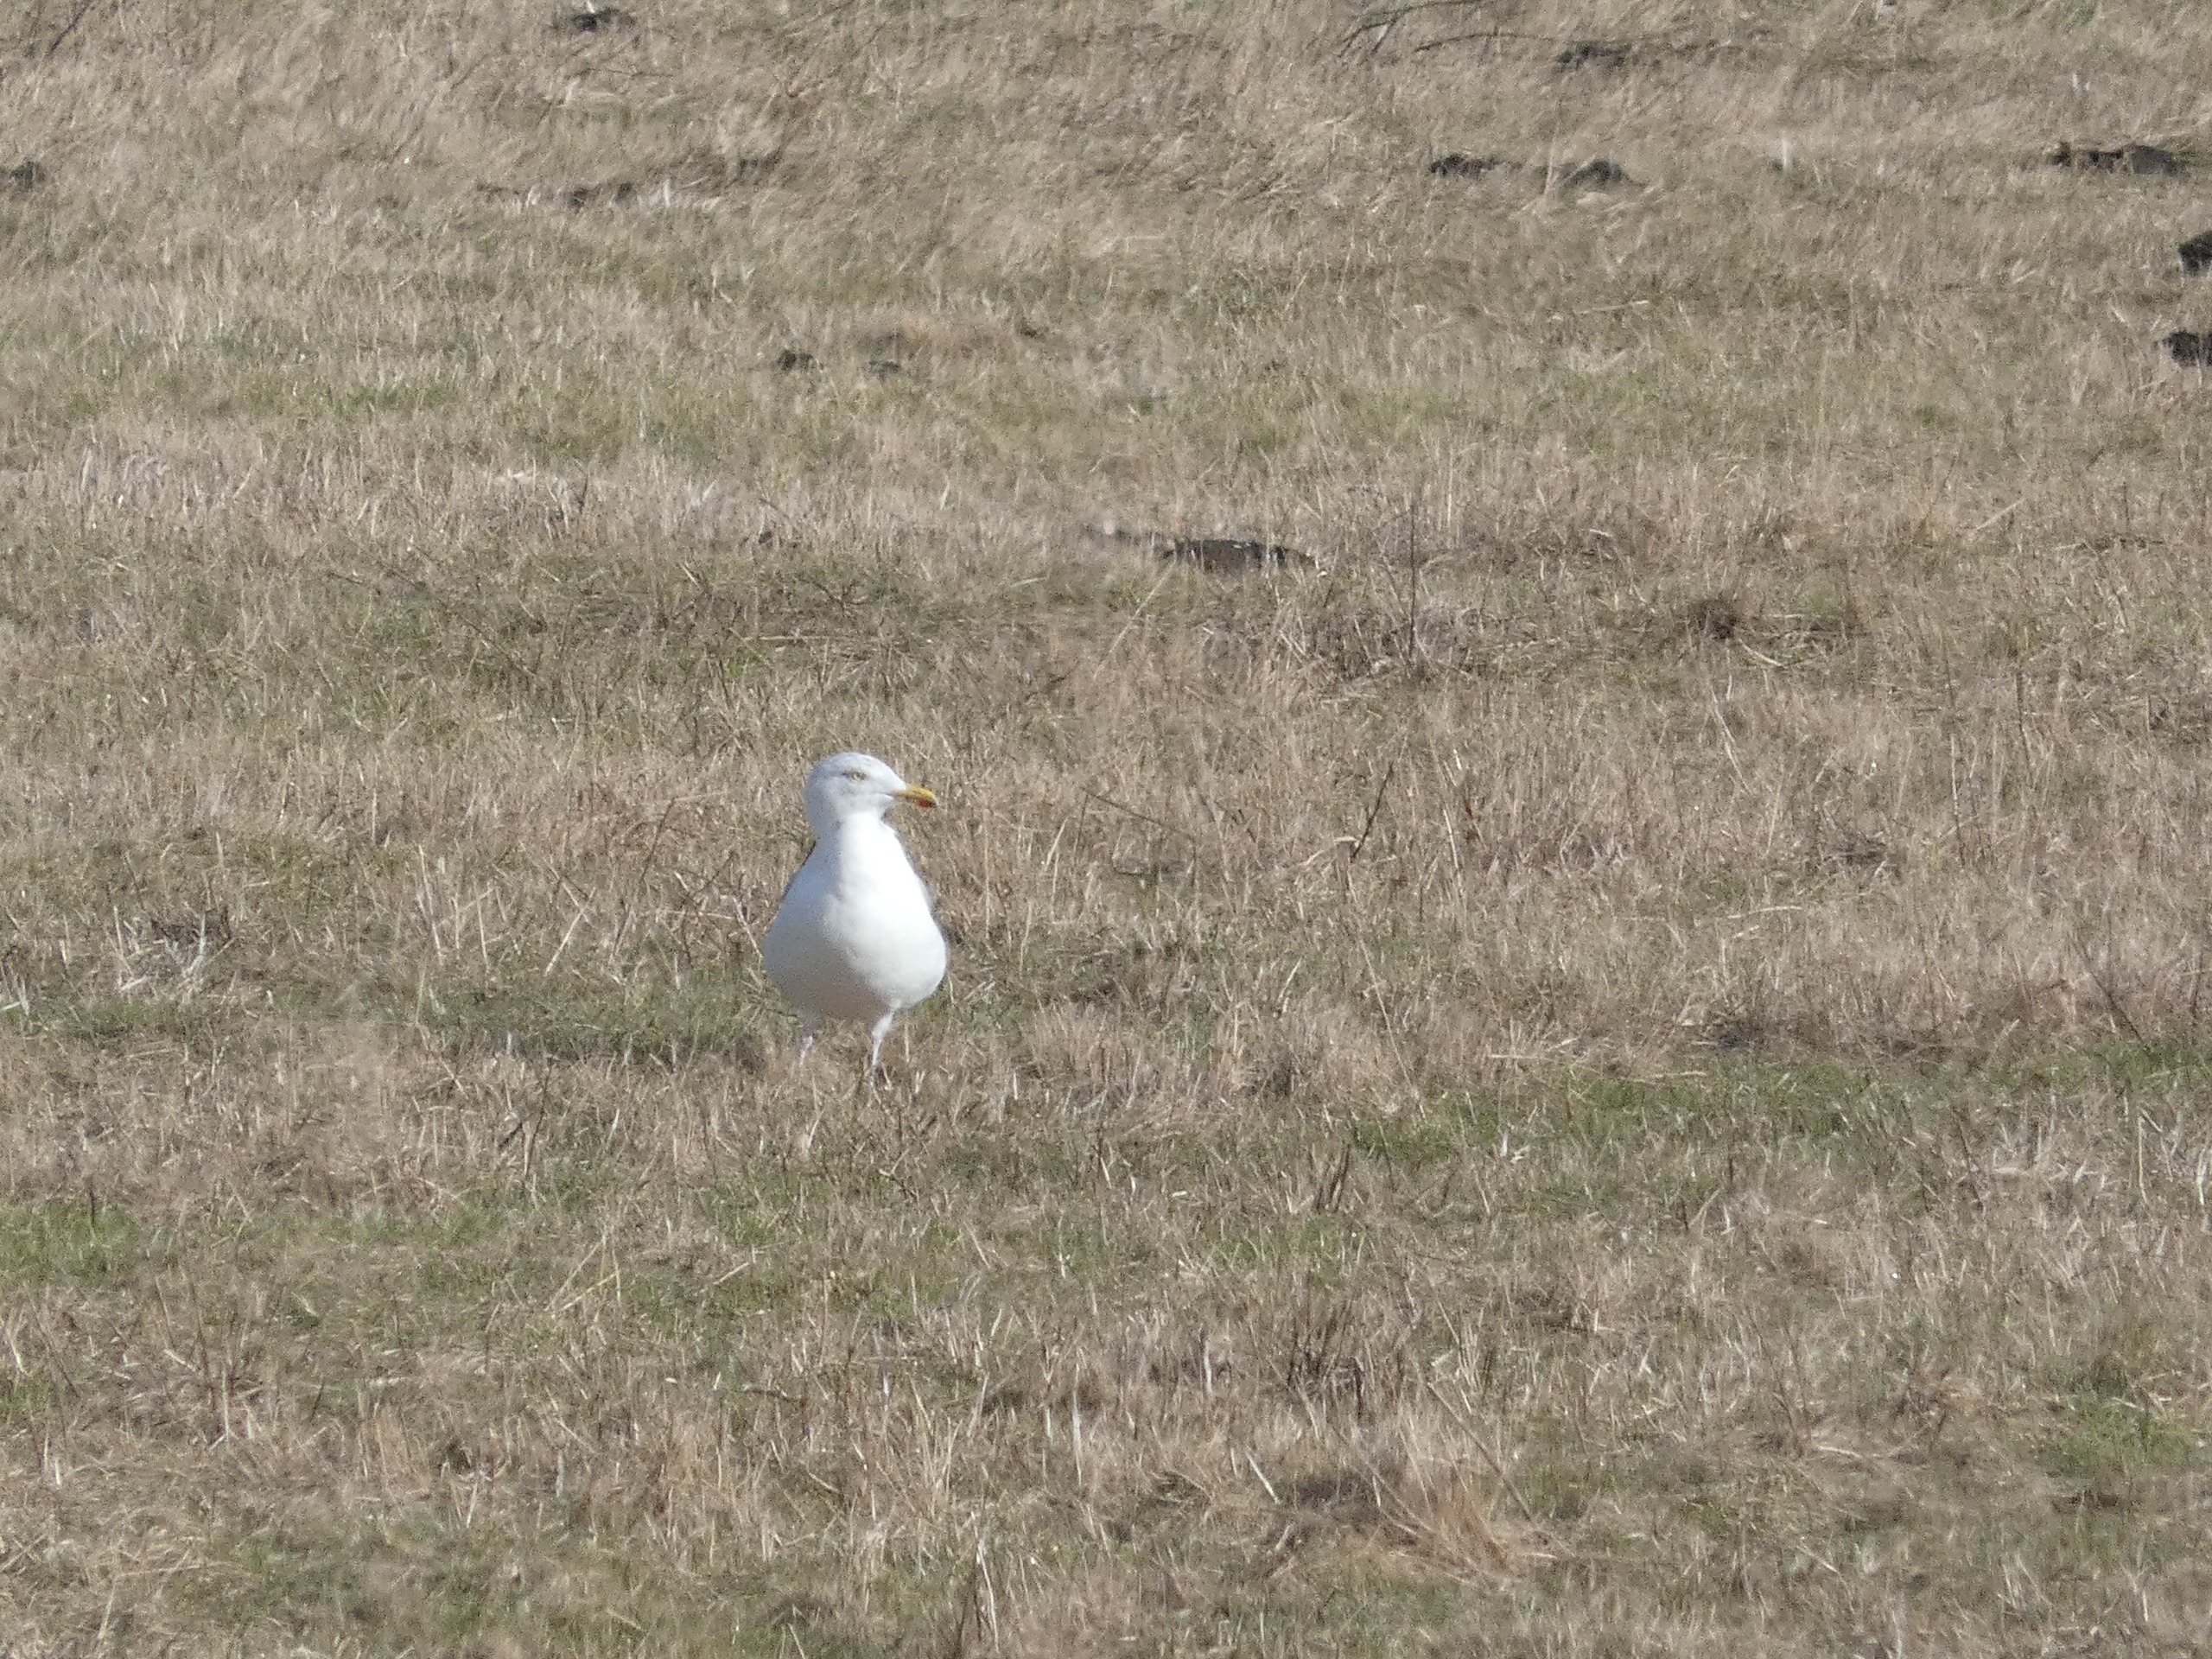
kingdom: Animalia
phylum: Chordata
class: Aves
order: Charadriiformes
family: Laridae
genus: Larus
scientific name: Larus argentatus
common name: Sølvmåge
